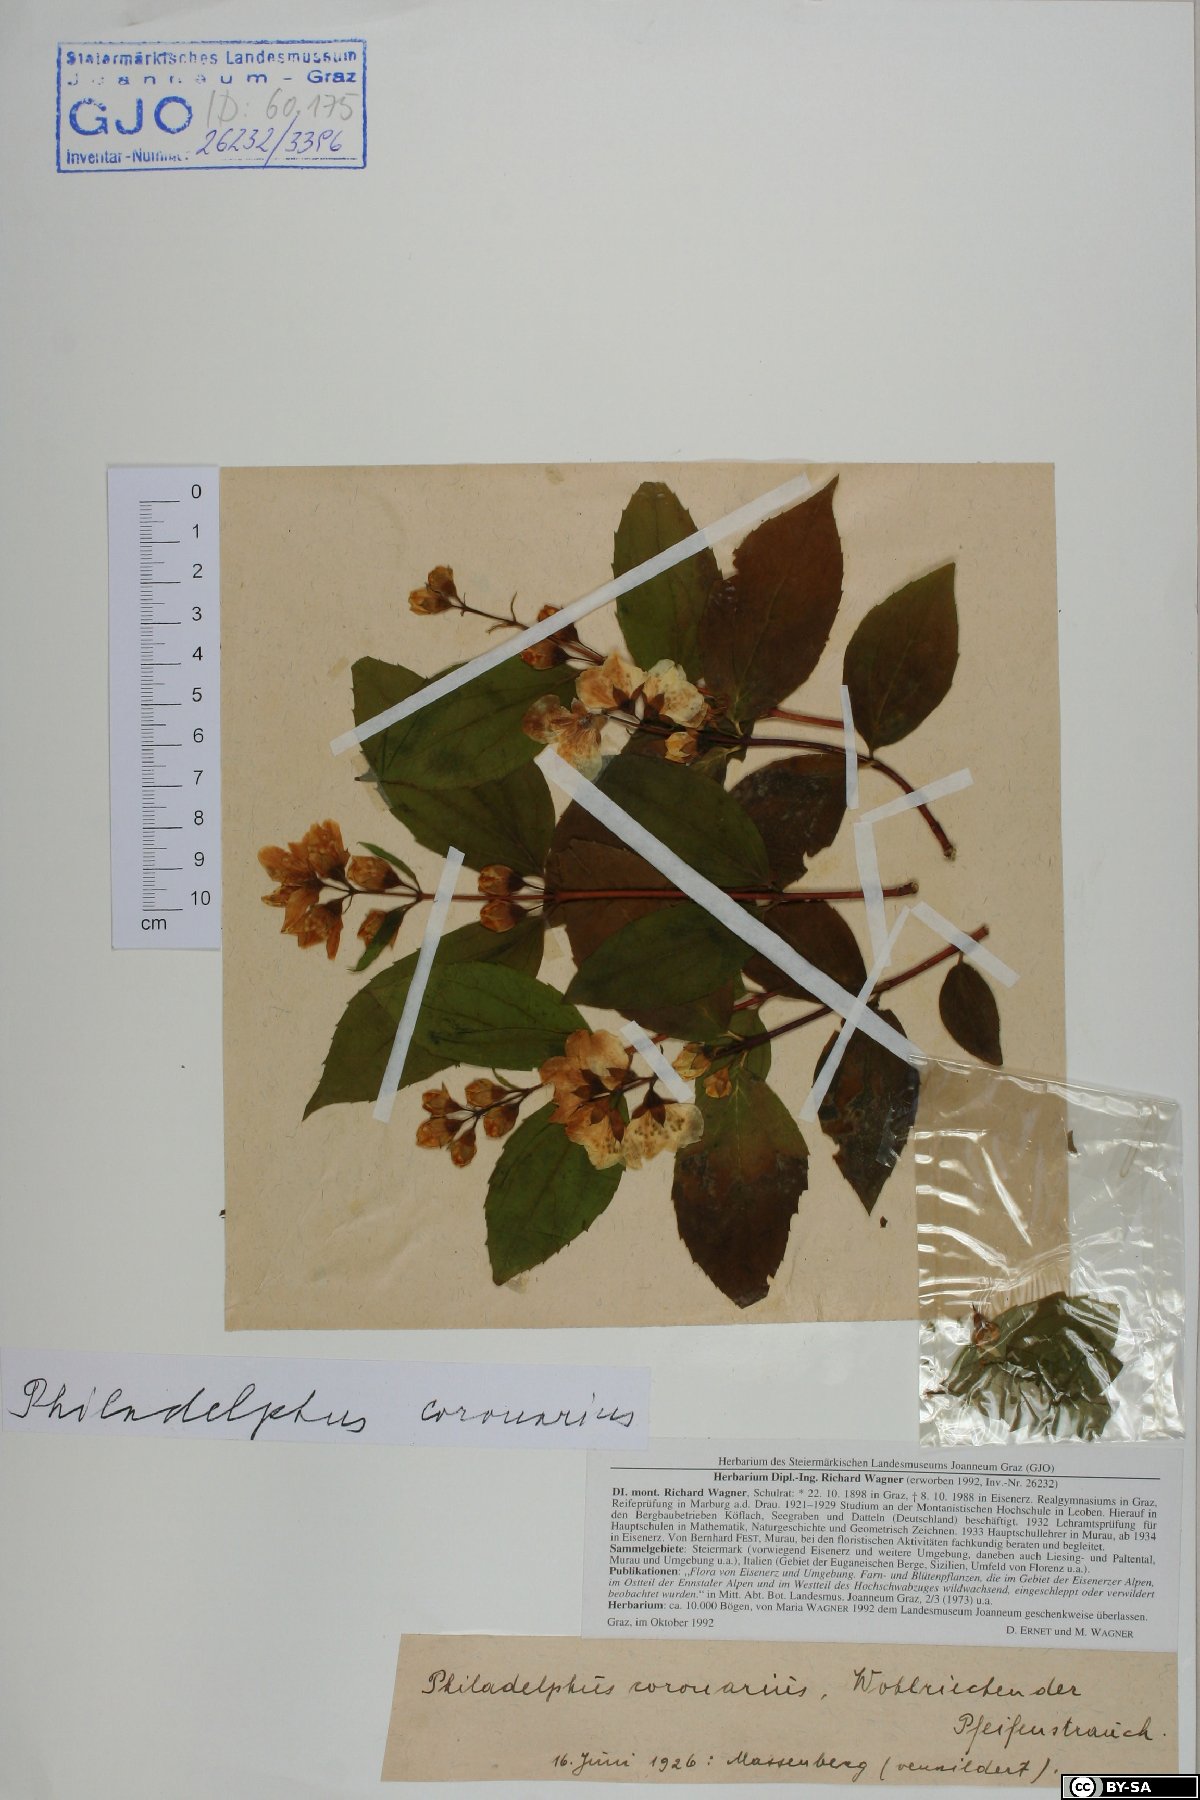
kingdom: Plantae
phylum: Tracheophyta
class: Magnoliopsida
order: Cornales
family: Hydrangeaceae
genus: Philadelphus
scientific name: Philadelphus coronarius
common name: Mock orange
